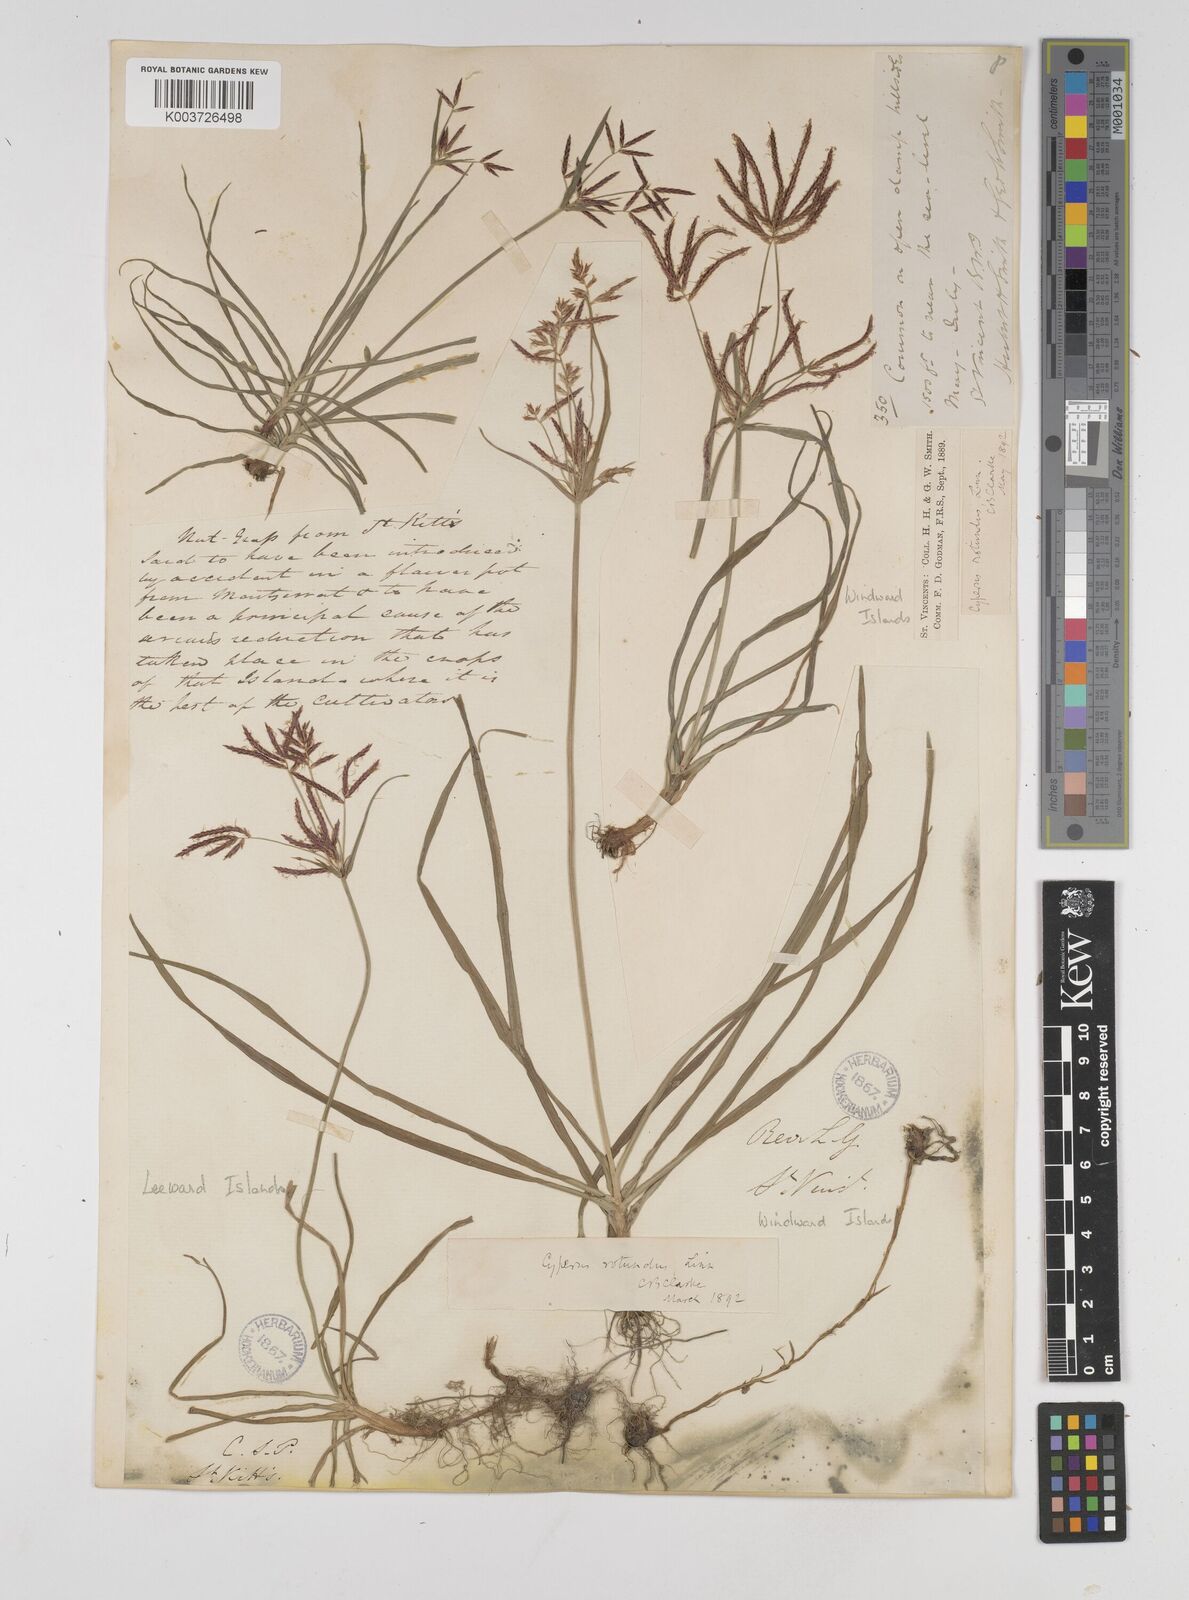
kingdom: Plantae
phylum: Tracheophyta
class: Liliopsida
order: Poales
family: Cyperaceae
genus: Cyperus
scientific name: Cyperus rotundus
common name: Nutgrass
